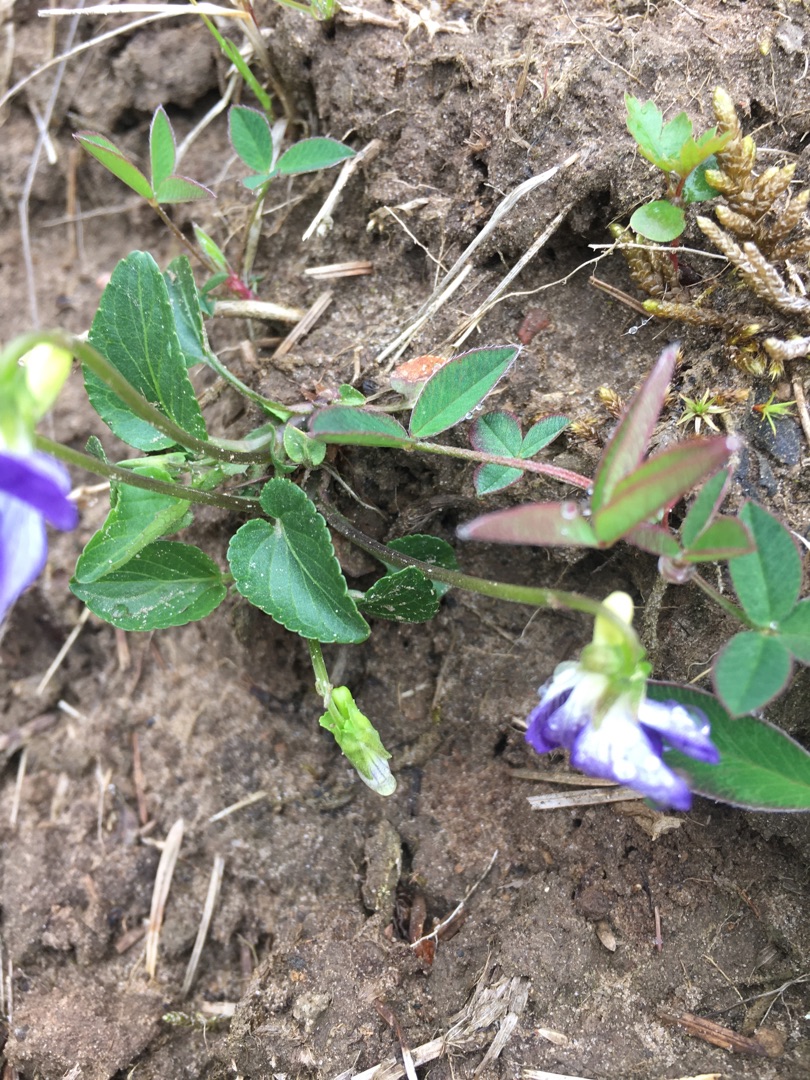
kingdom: Plantae
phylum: Tracheophyta
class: Magnoliopsida
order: Malpighiales
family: Violaceae
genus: Viola
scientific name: Viola canina
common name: Hunde-viol
